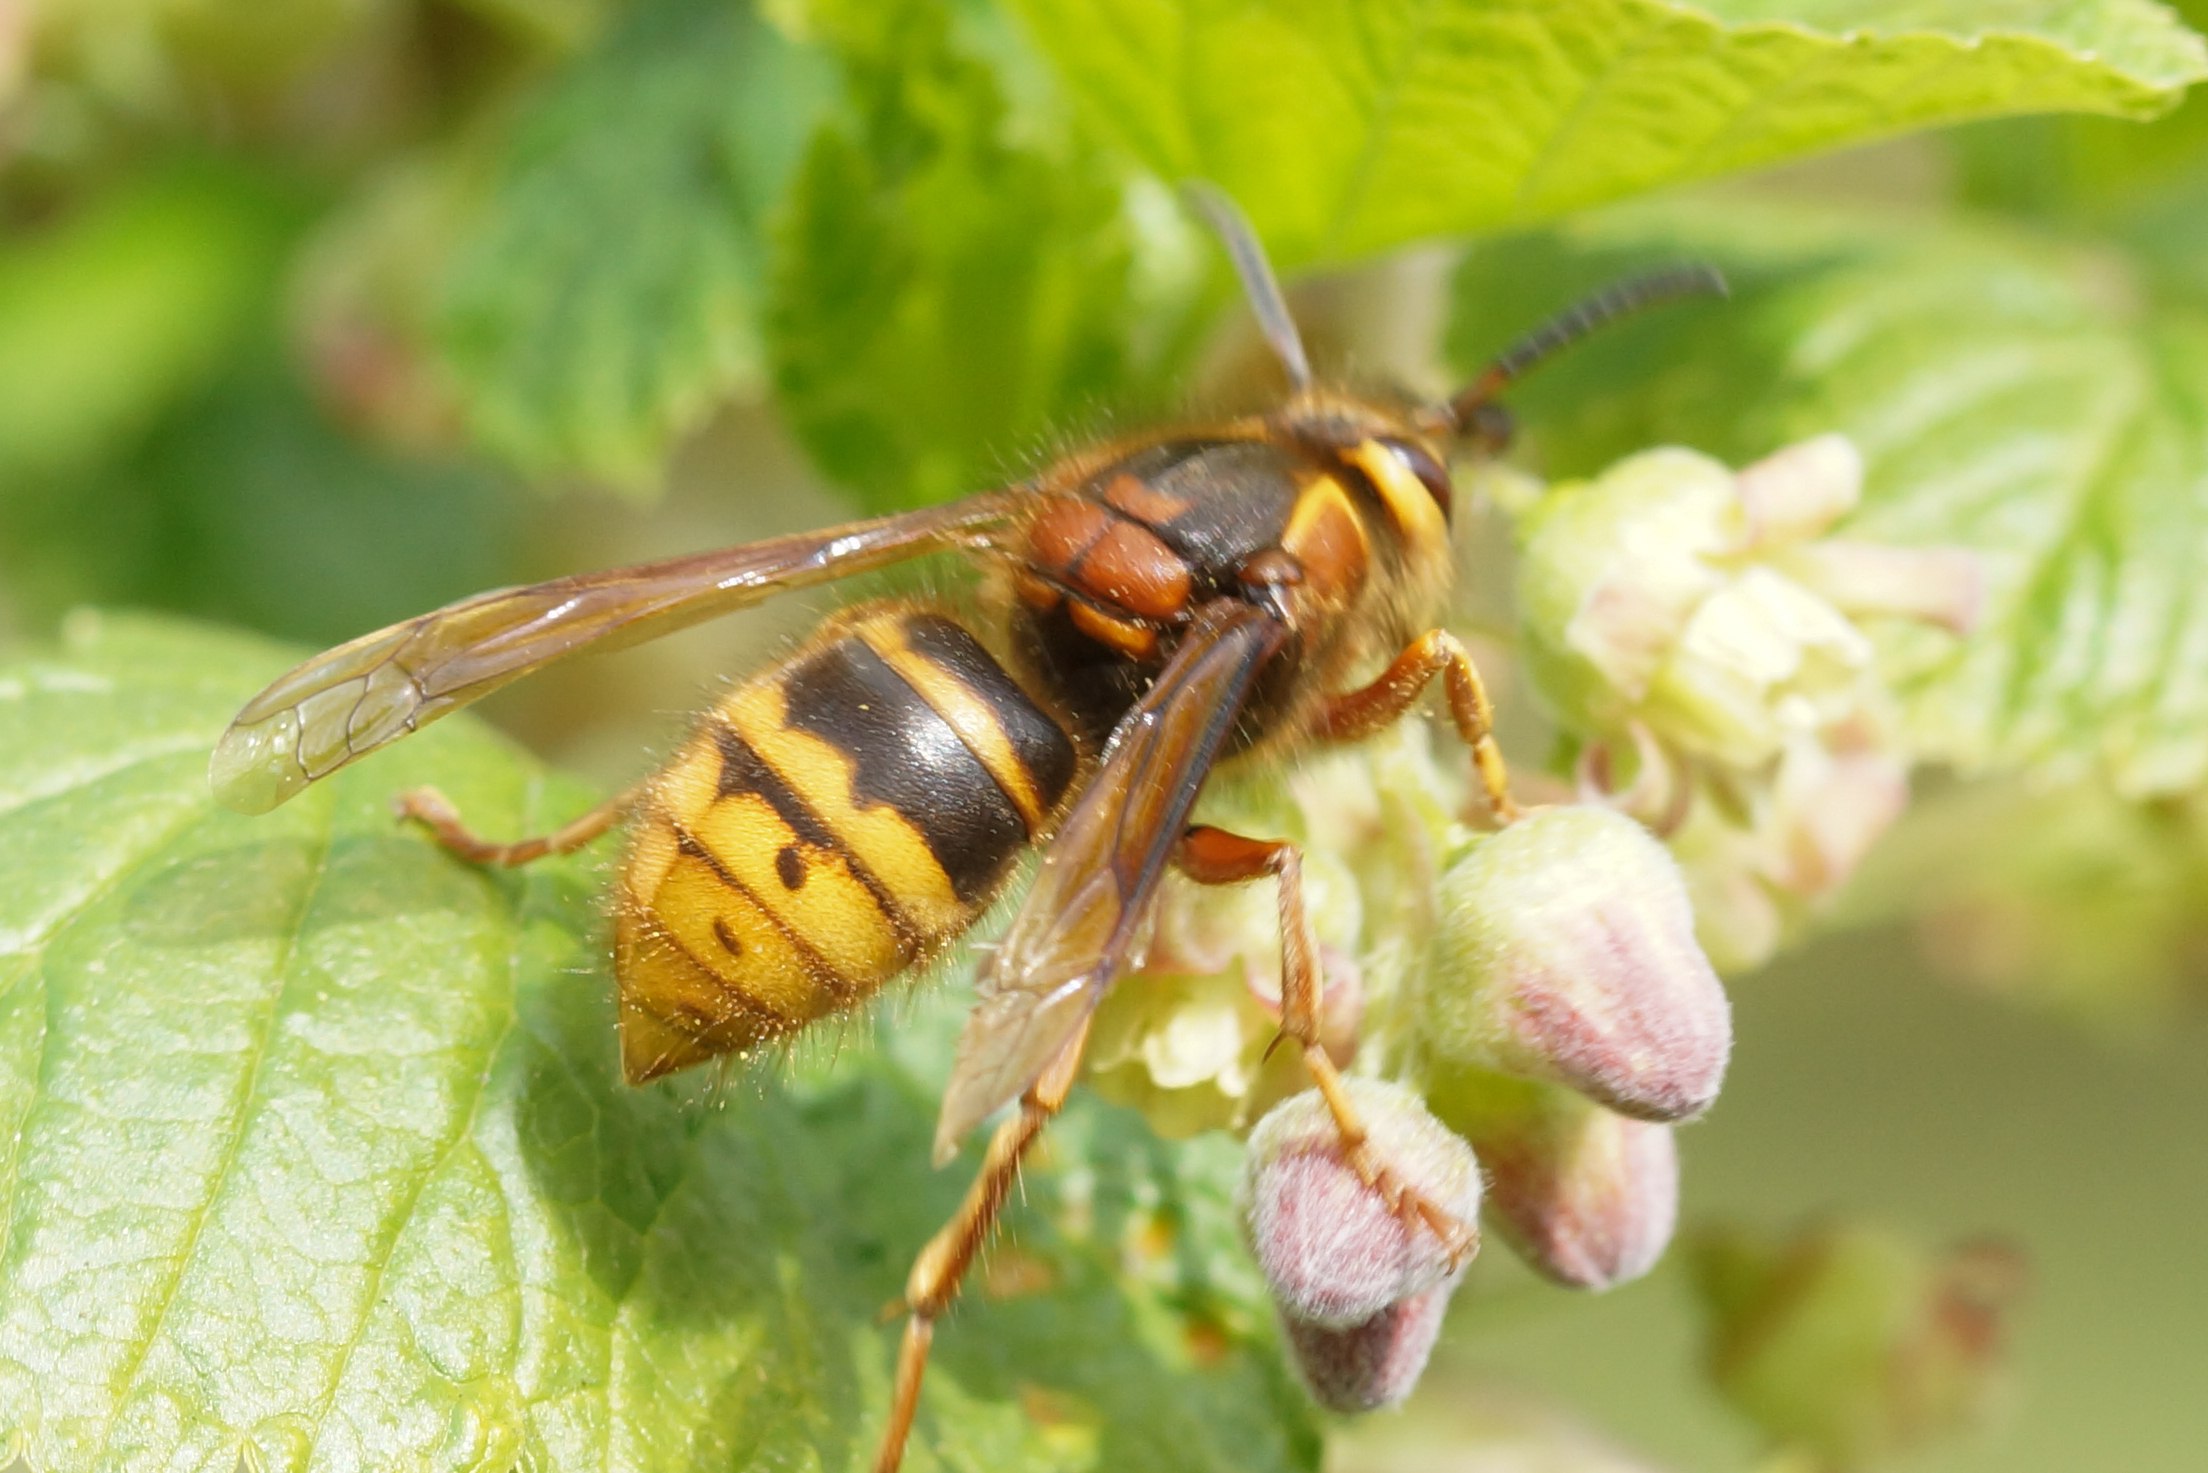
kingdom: Animalia
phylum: Arthropoda
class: Insecta
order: Hymenoptera
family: Vespidae
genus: Vespa
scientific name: Vespa crabro
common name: Stor gedehams
